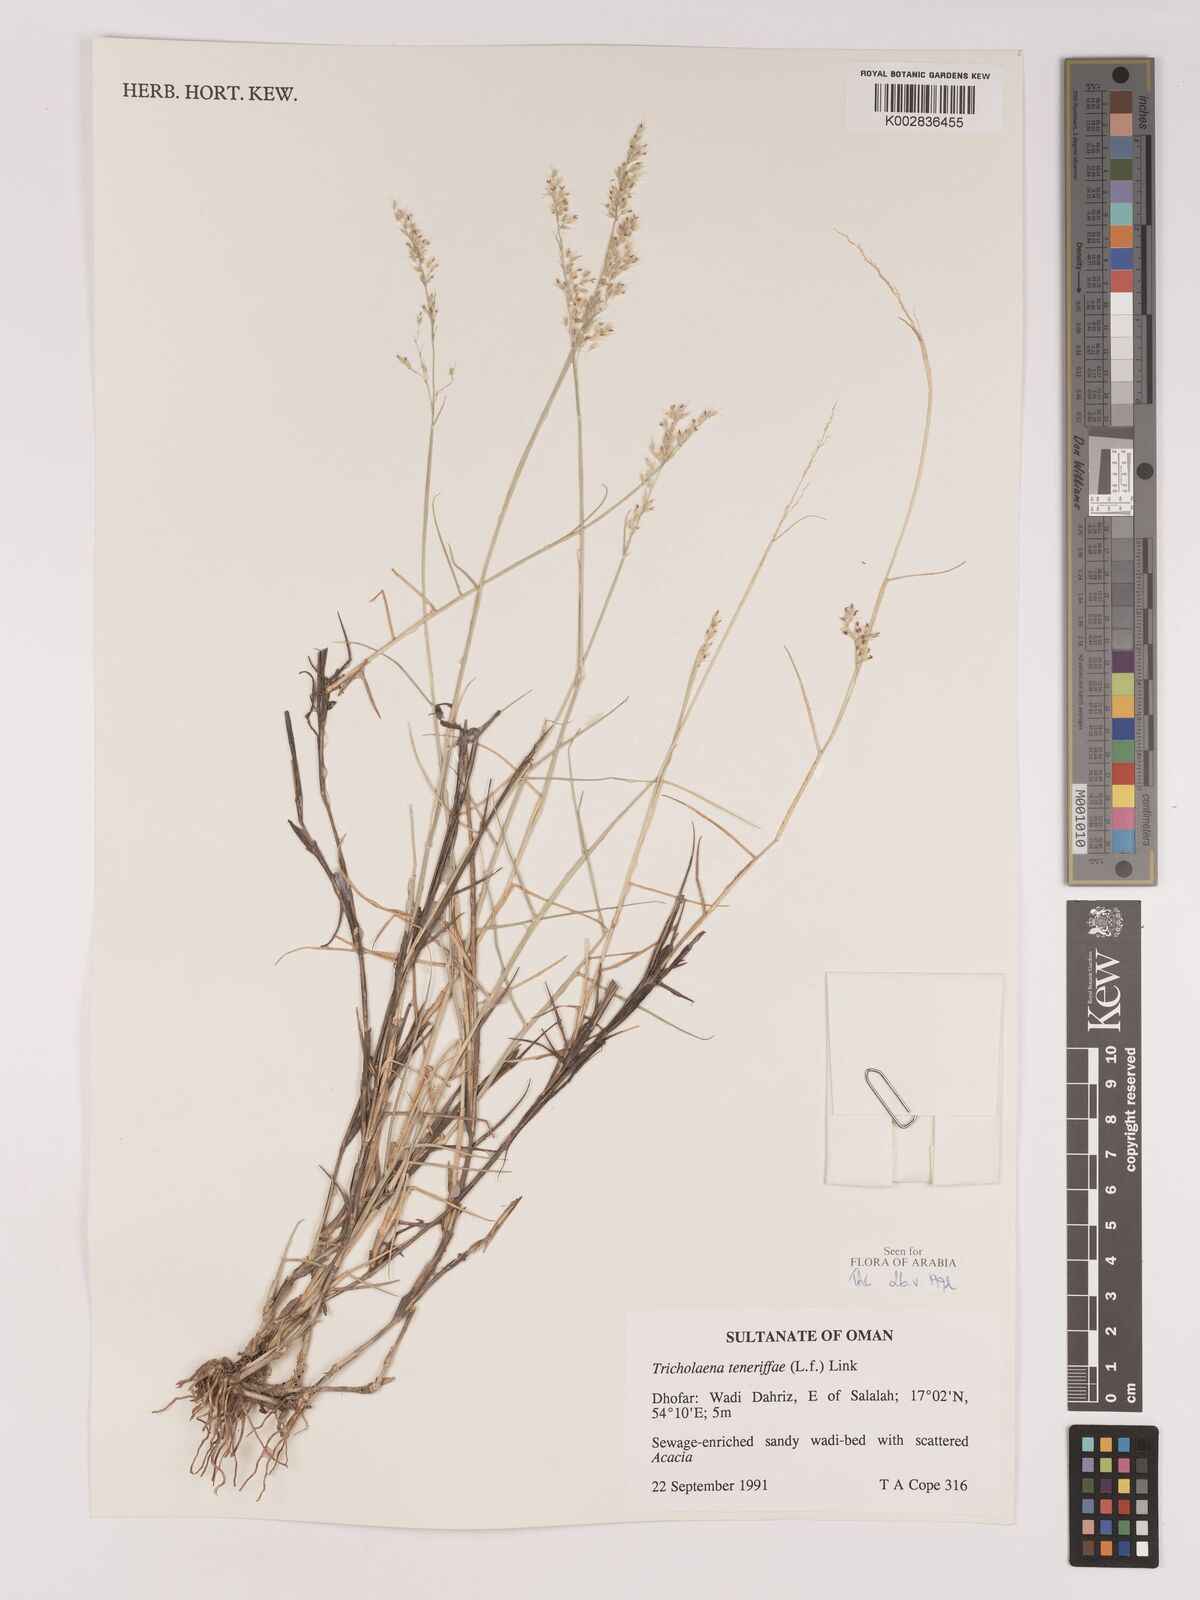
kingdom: Plantae
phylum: Tracheophyta
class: Liliopsida
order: Poales
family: Poaceae
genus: Tricholaena
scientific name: Tricholaena teneriffae
